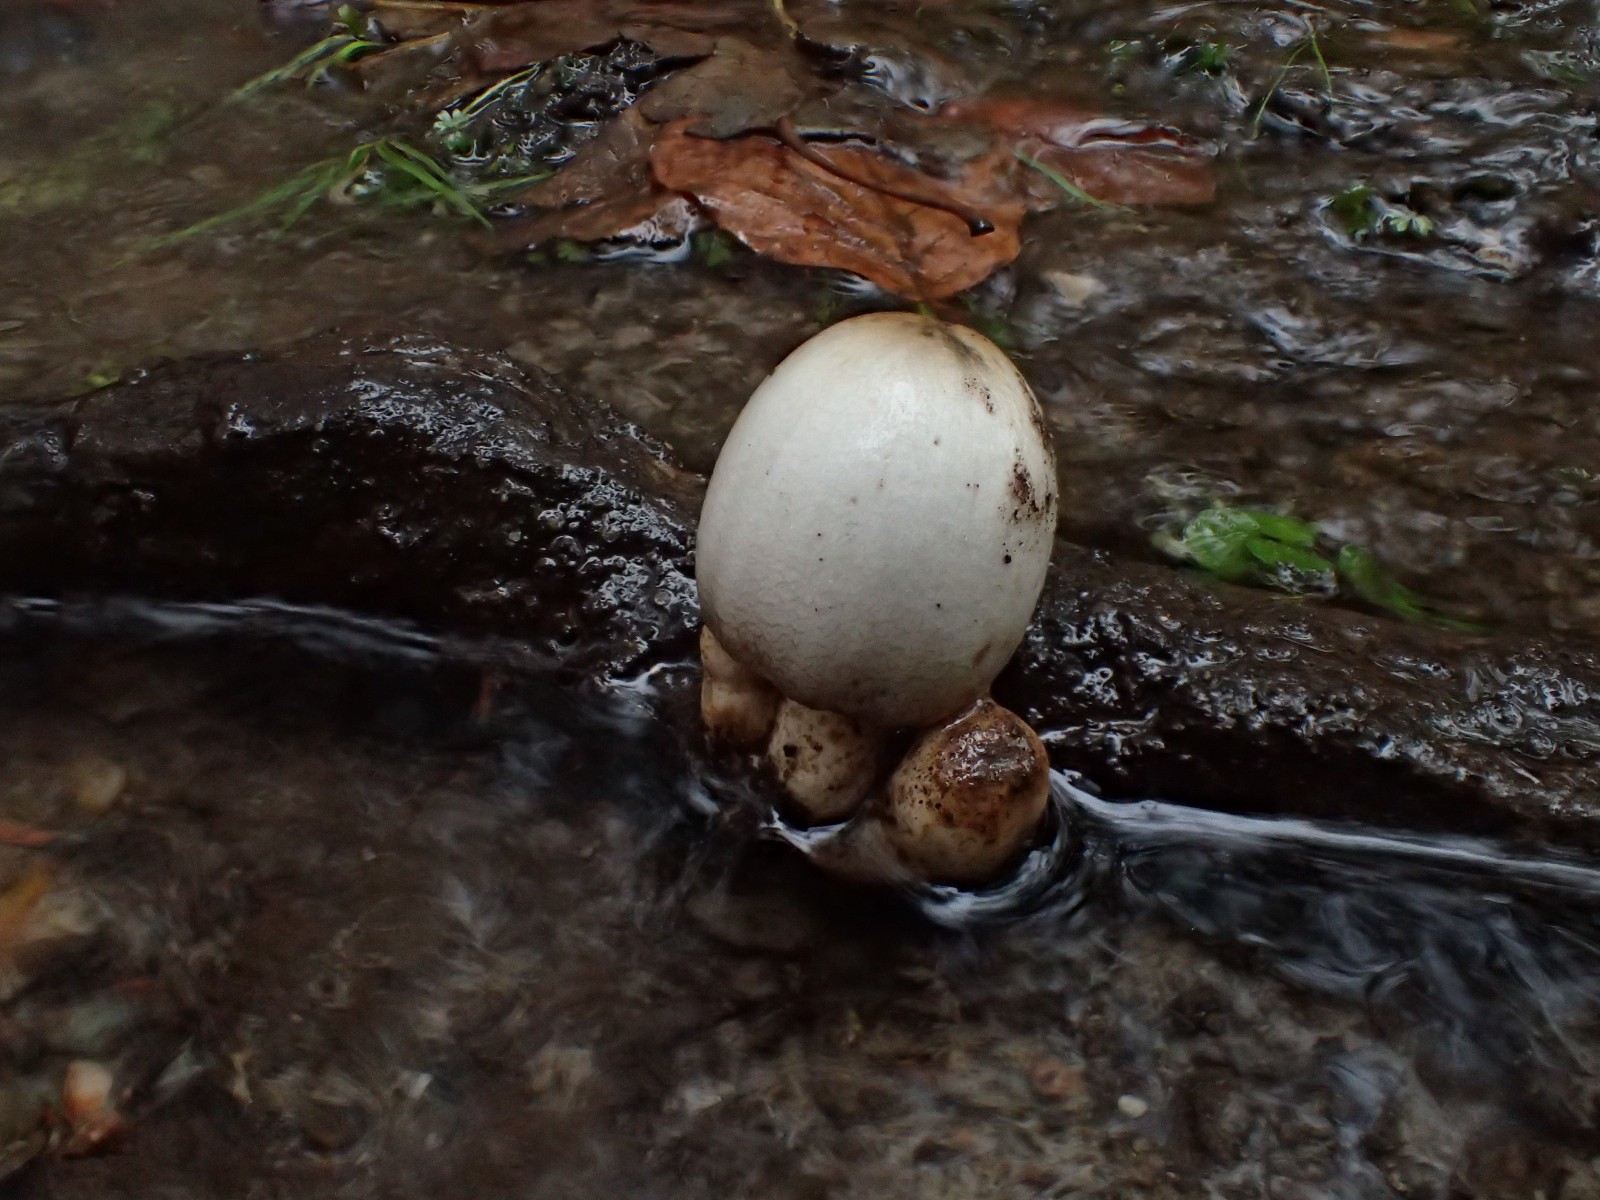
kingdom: Fungi
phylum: Basidiomycota
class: Agaricomycetes
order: Agaricales
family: Psathyrellaceae
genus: Coprinopsis
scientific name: Coprinopsis atramentaria
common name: almindelig blækhat
